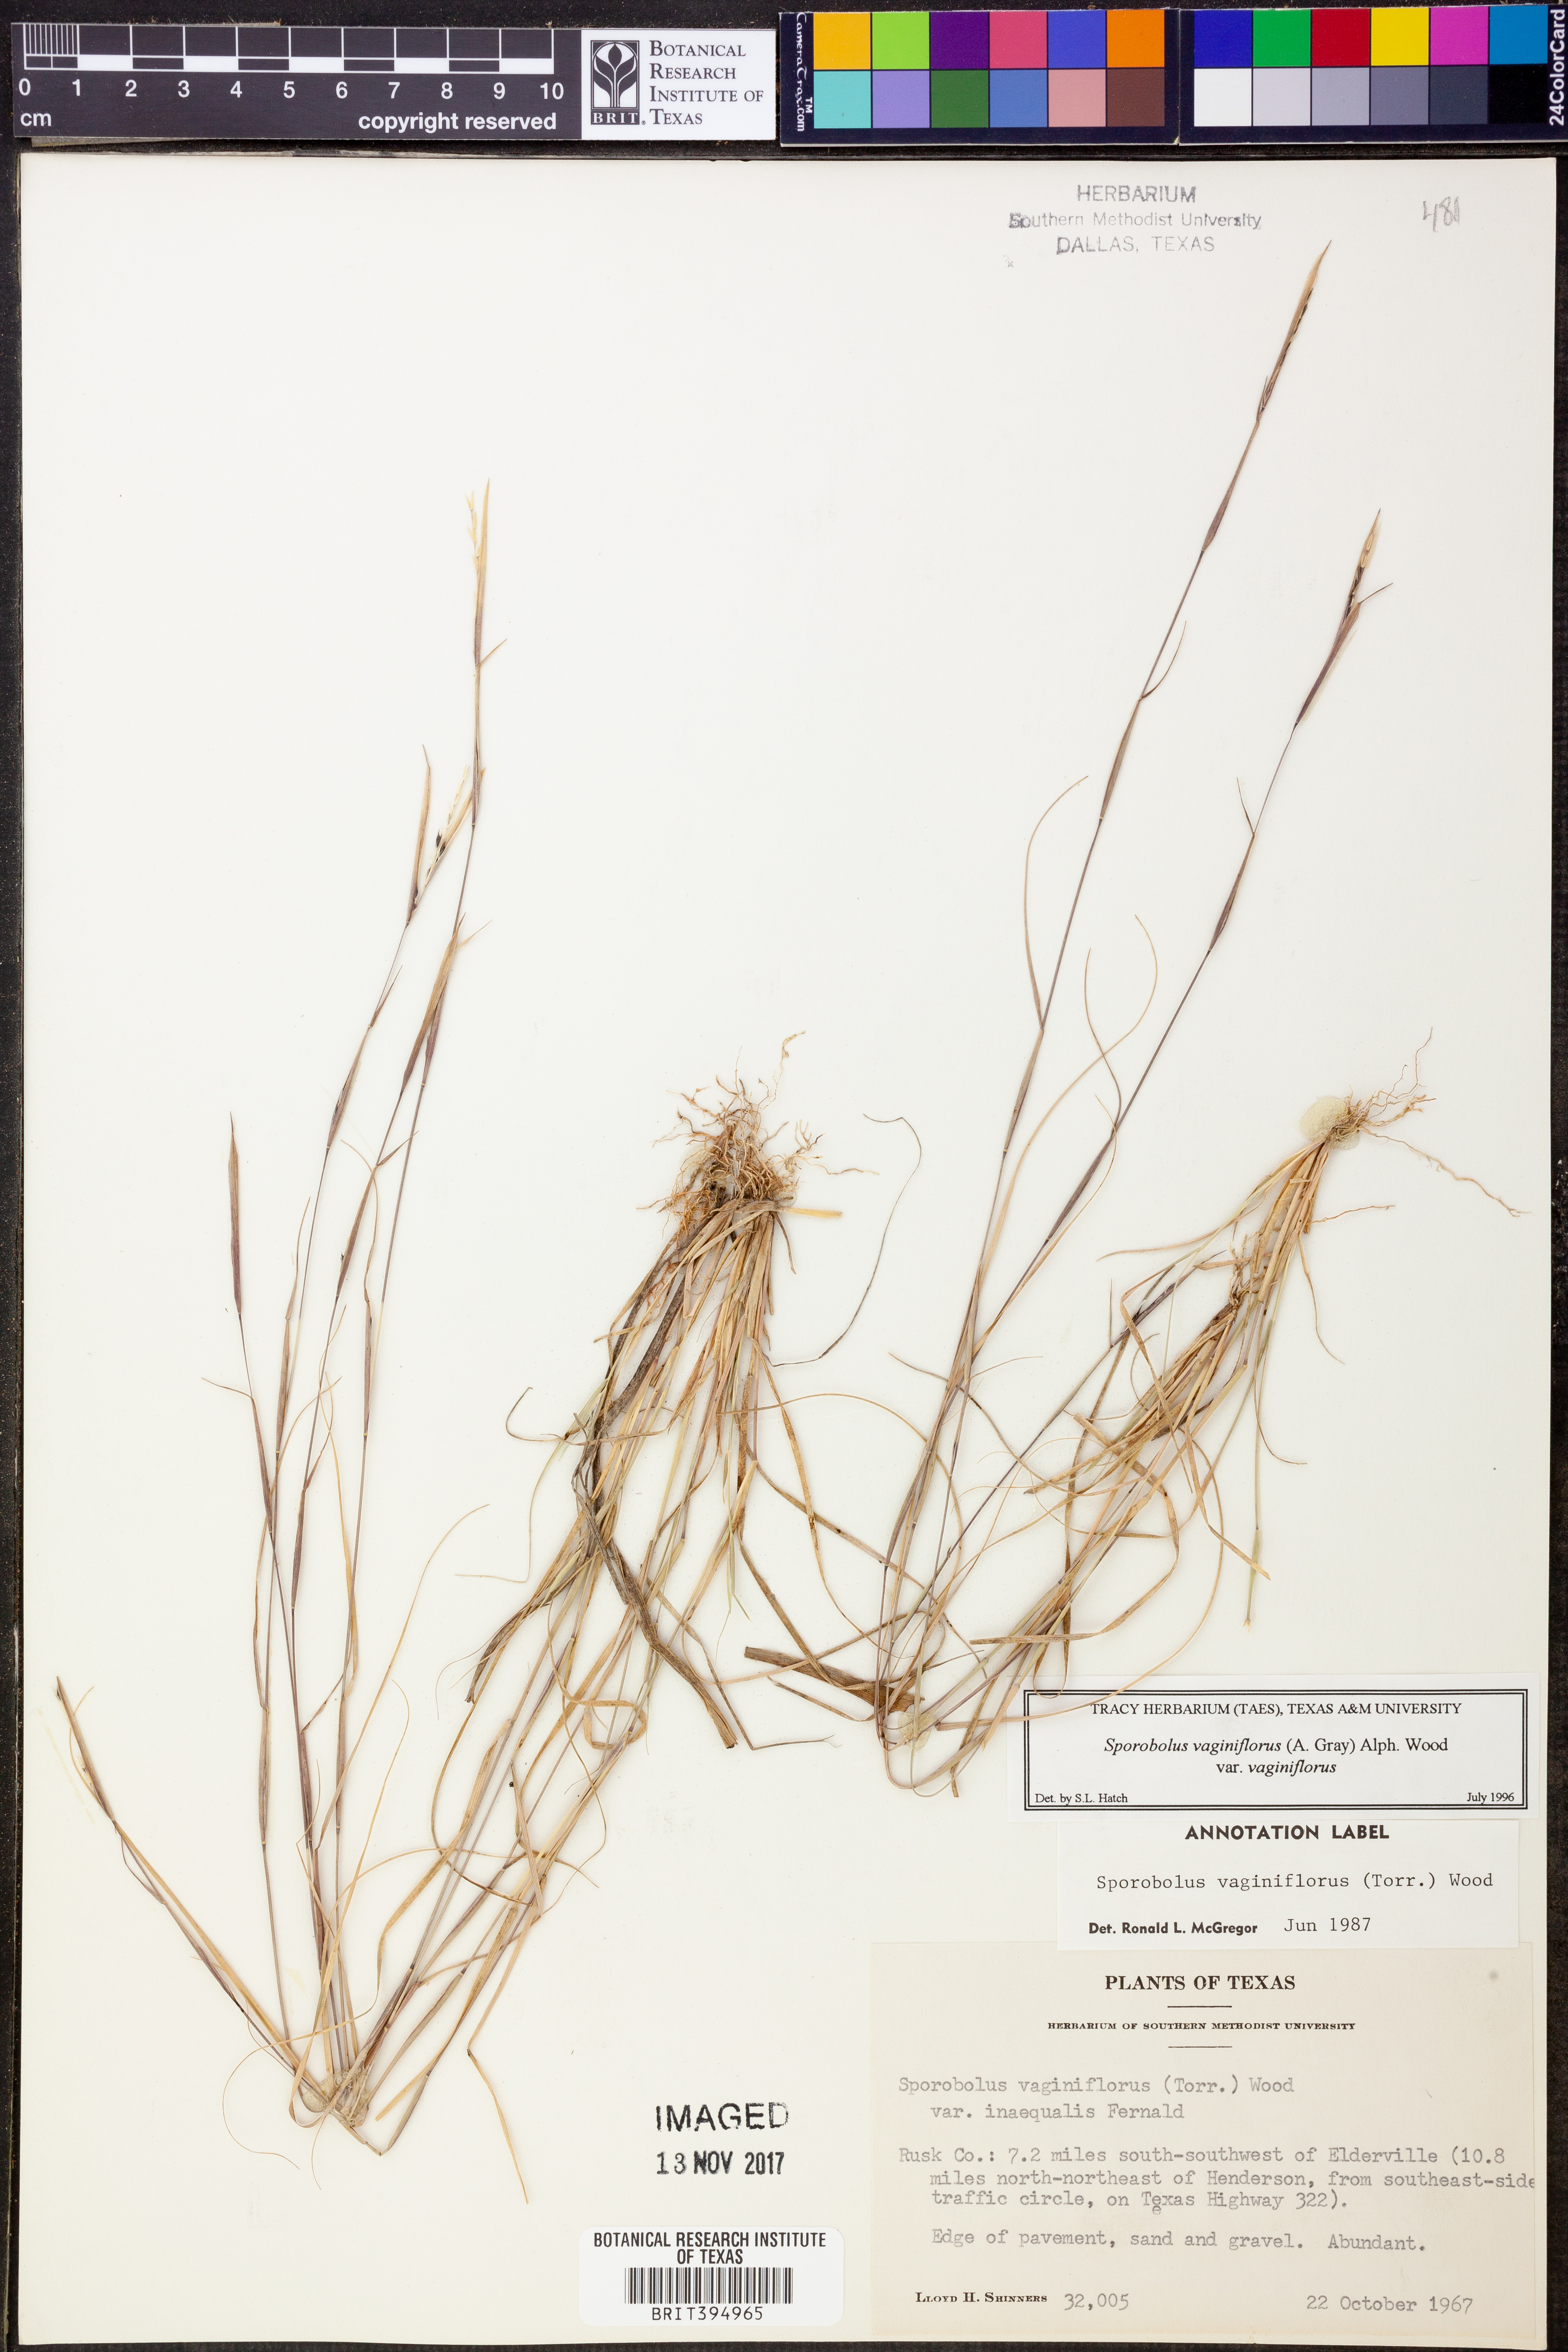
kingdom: Plantae
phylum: Tracheophyta
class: Liliopsida
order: Poales
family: Poaceae
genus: Sporobolus
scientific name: Sporobolus vaginiflorus
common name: Poverty dropseed
